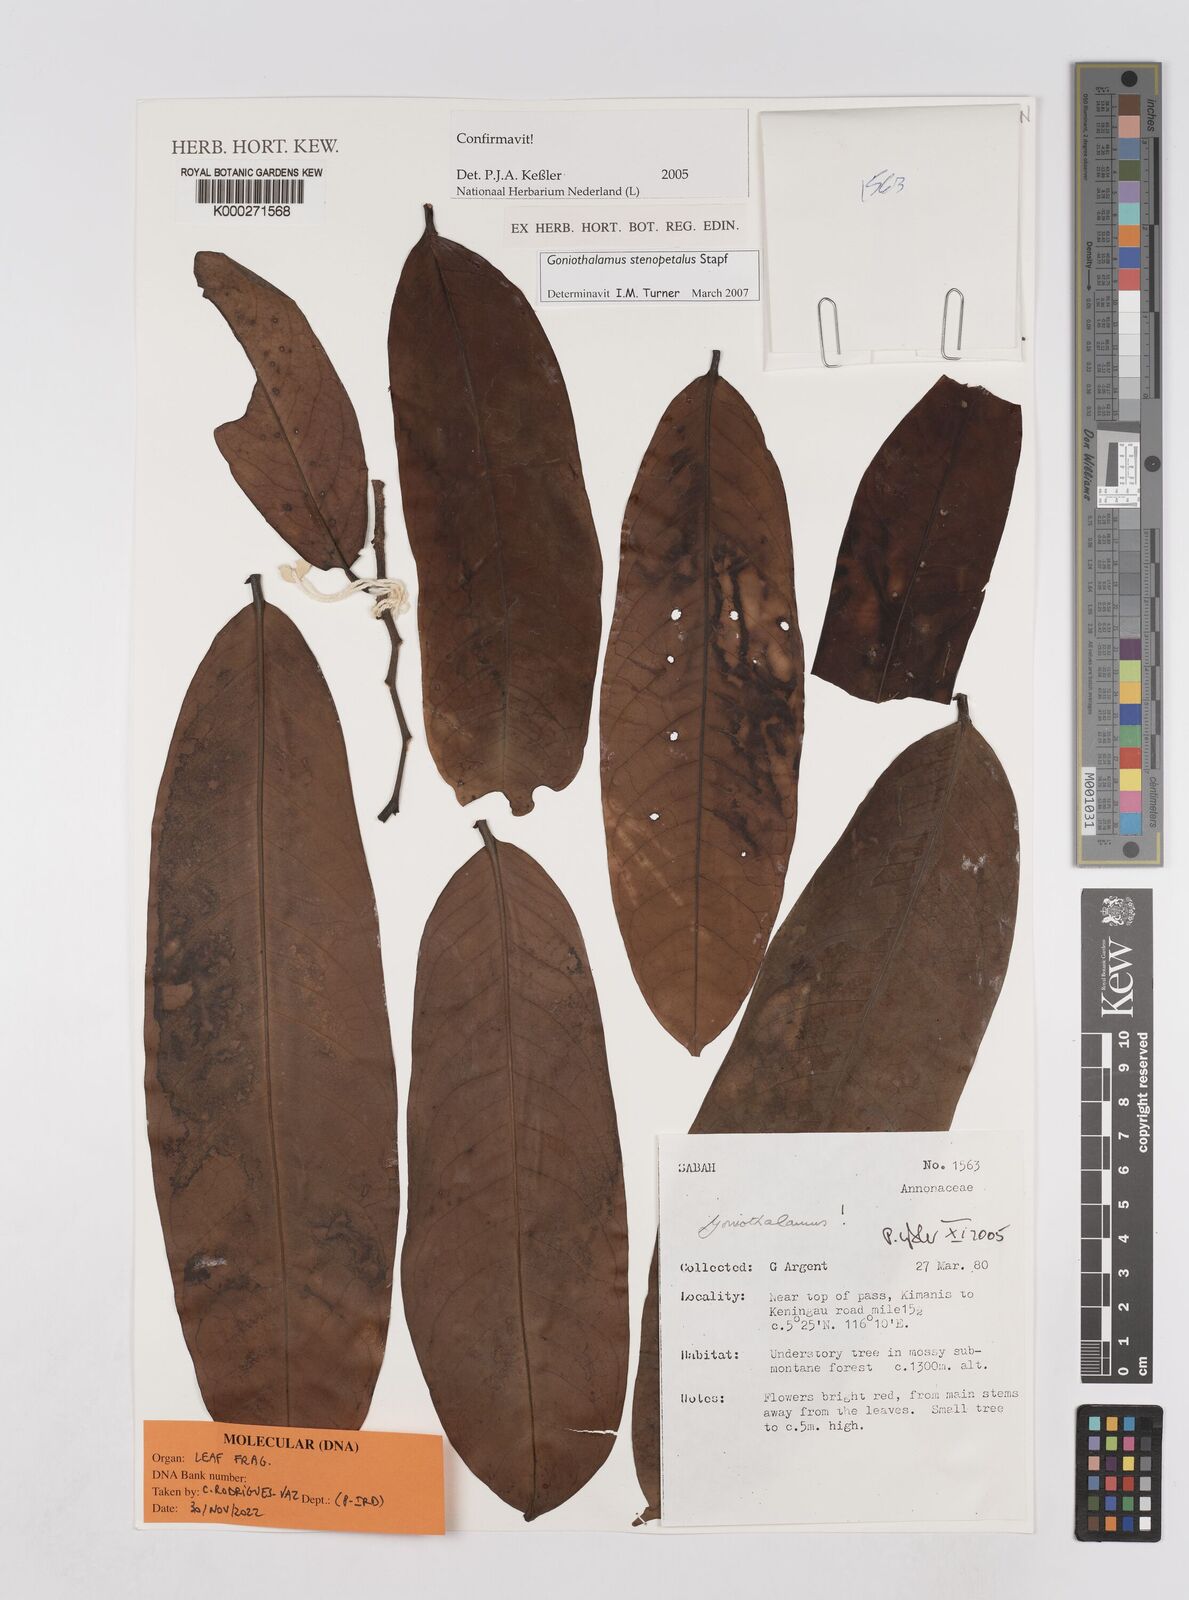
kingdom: Plantae
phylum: Tracheophyta
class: Magnoliopsida
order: Magnoliales
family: Annonaceae
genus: Goniothalamus
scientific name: Goniothalamus
